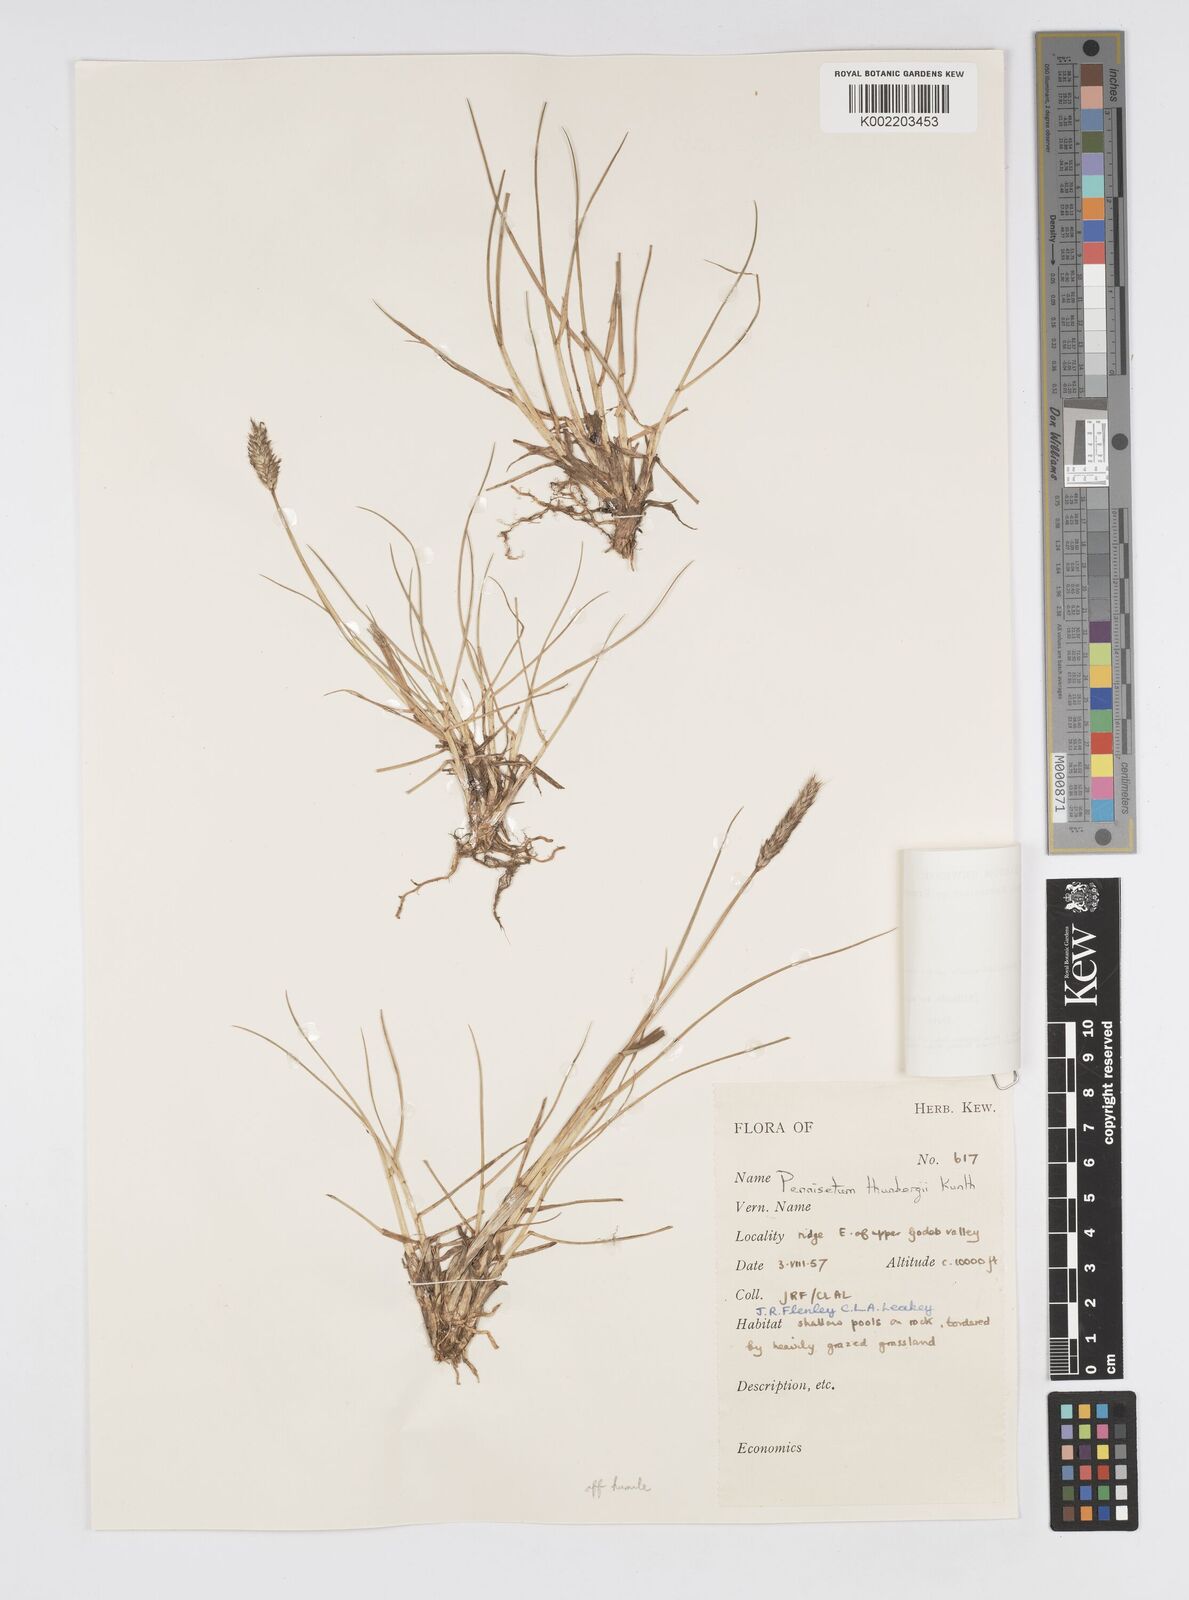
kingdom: Plantae
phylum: Tracheophyta
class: Liliopsida
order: Poales
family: Poaceae
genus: Cenchrus
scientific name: Cenchrus geniculatus
